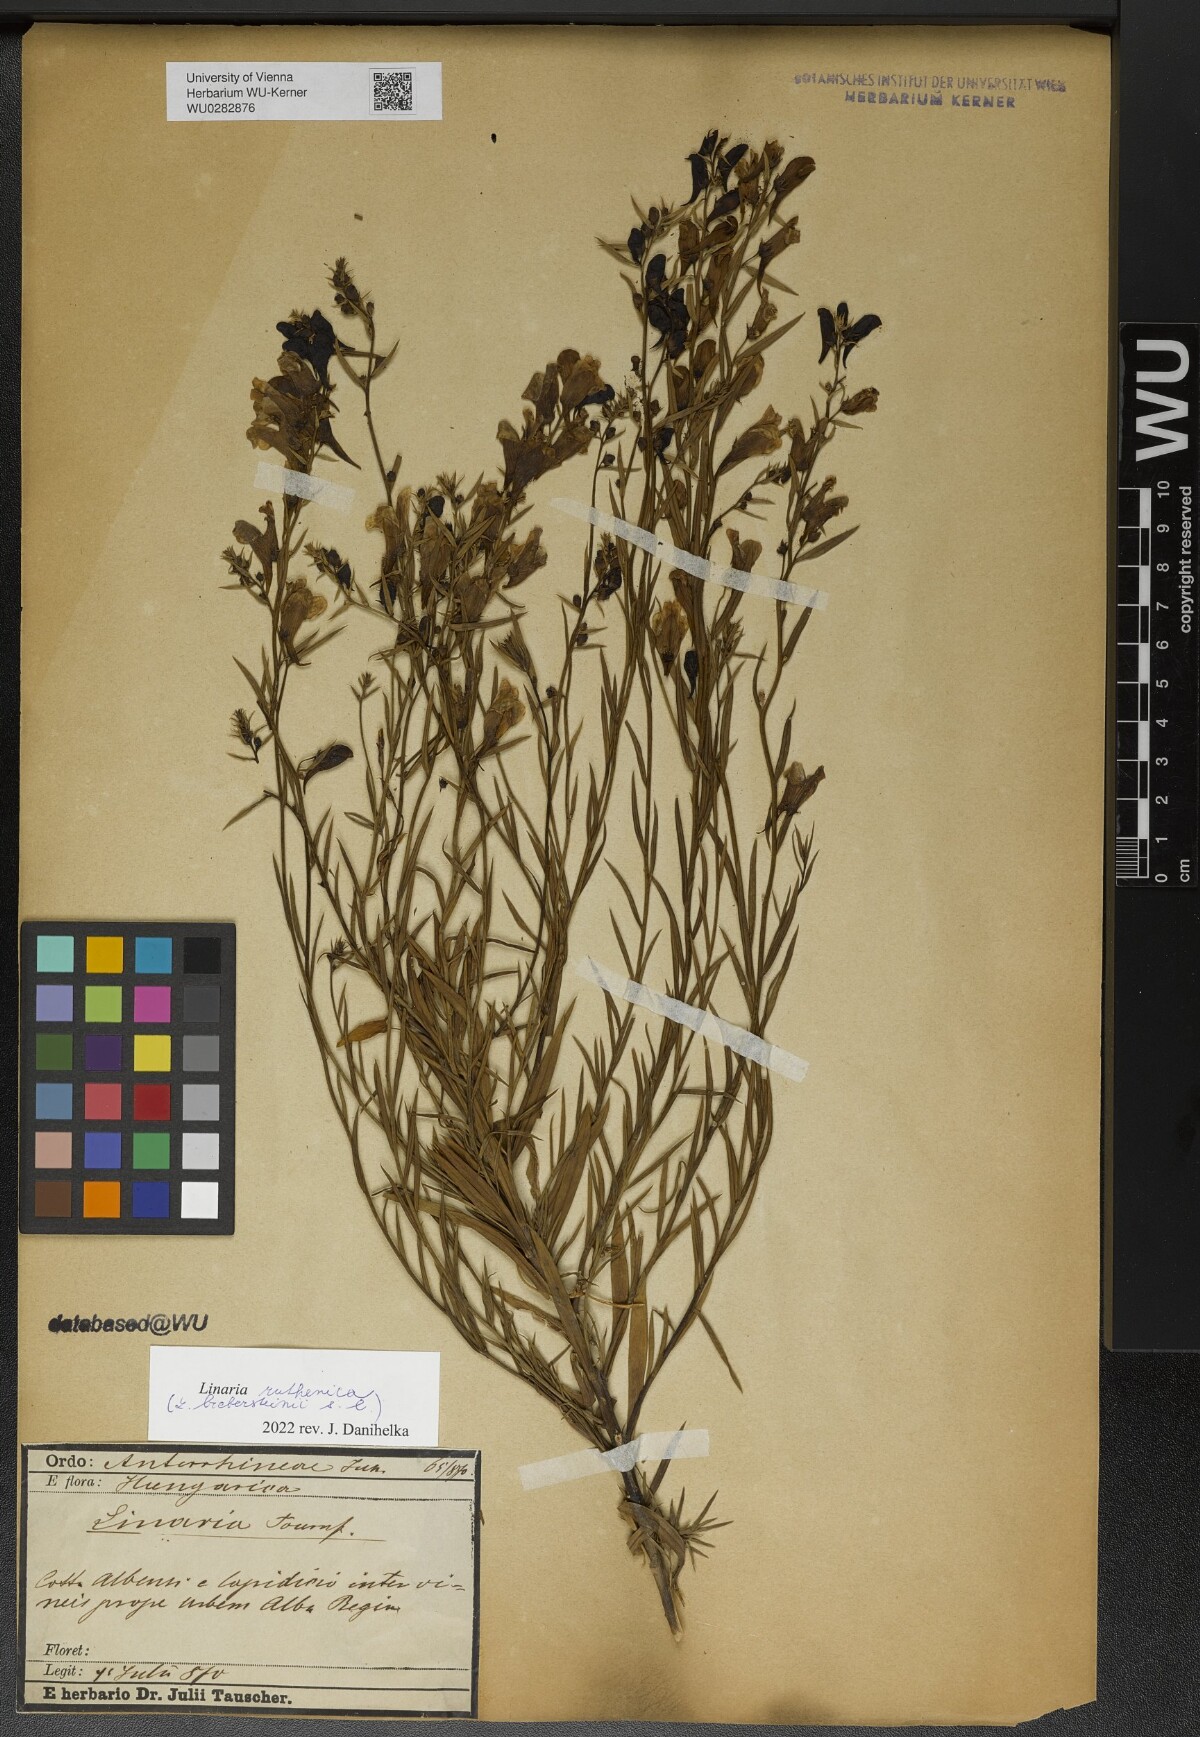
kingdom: Plantae
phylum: Tracheophyta
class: Magnoliopsida
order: Lamiales
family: Plantaginaceae
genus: Linaria
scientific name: Linaria biebersteinii
